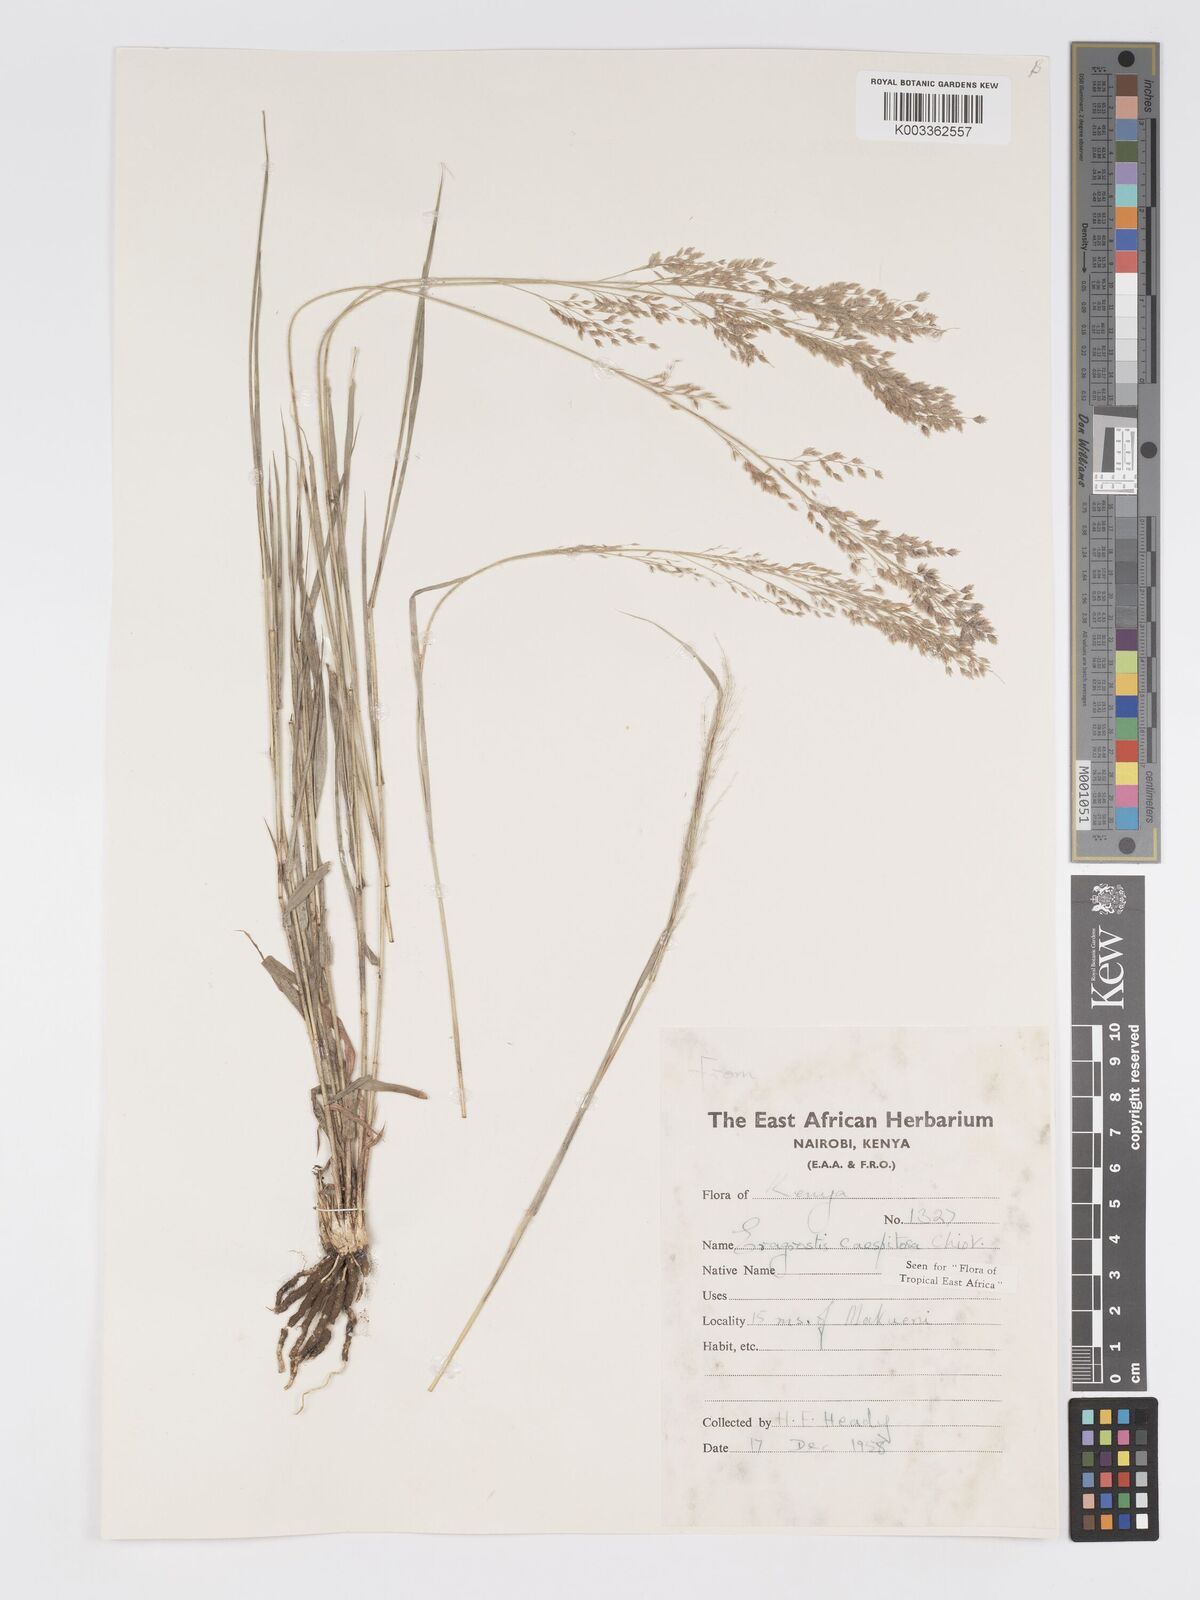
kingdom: Plantae
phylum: Tracheophyta
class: Liliopsida
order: Poales
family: Poaceae
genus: Eragrostis
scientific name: Eragrostis caespitosa
